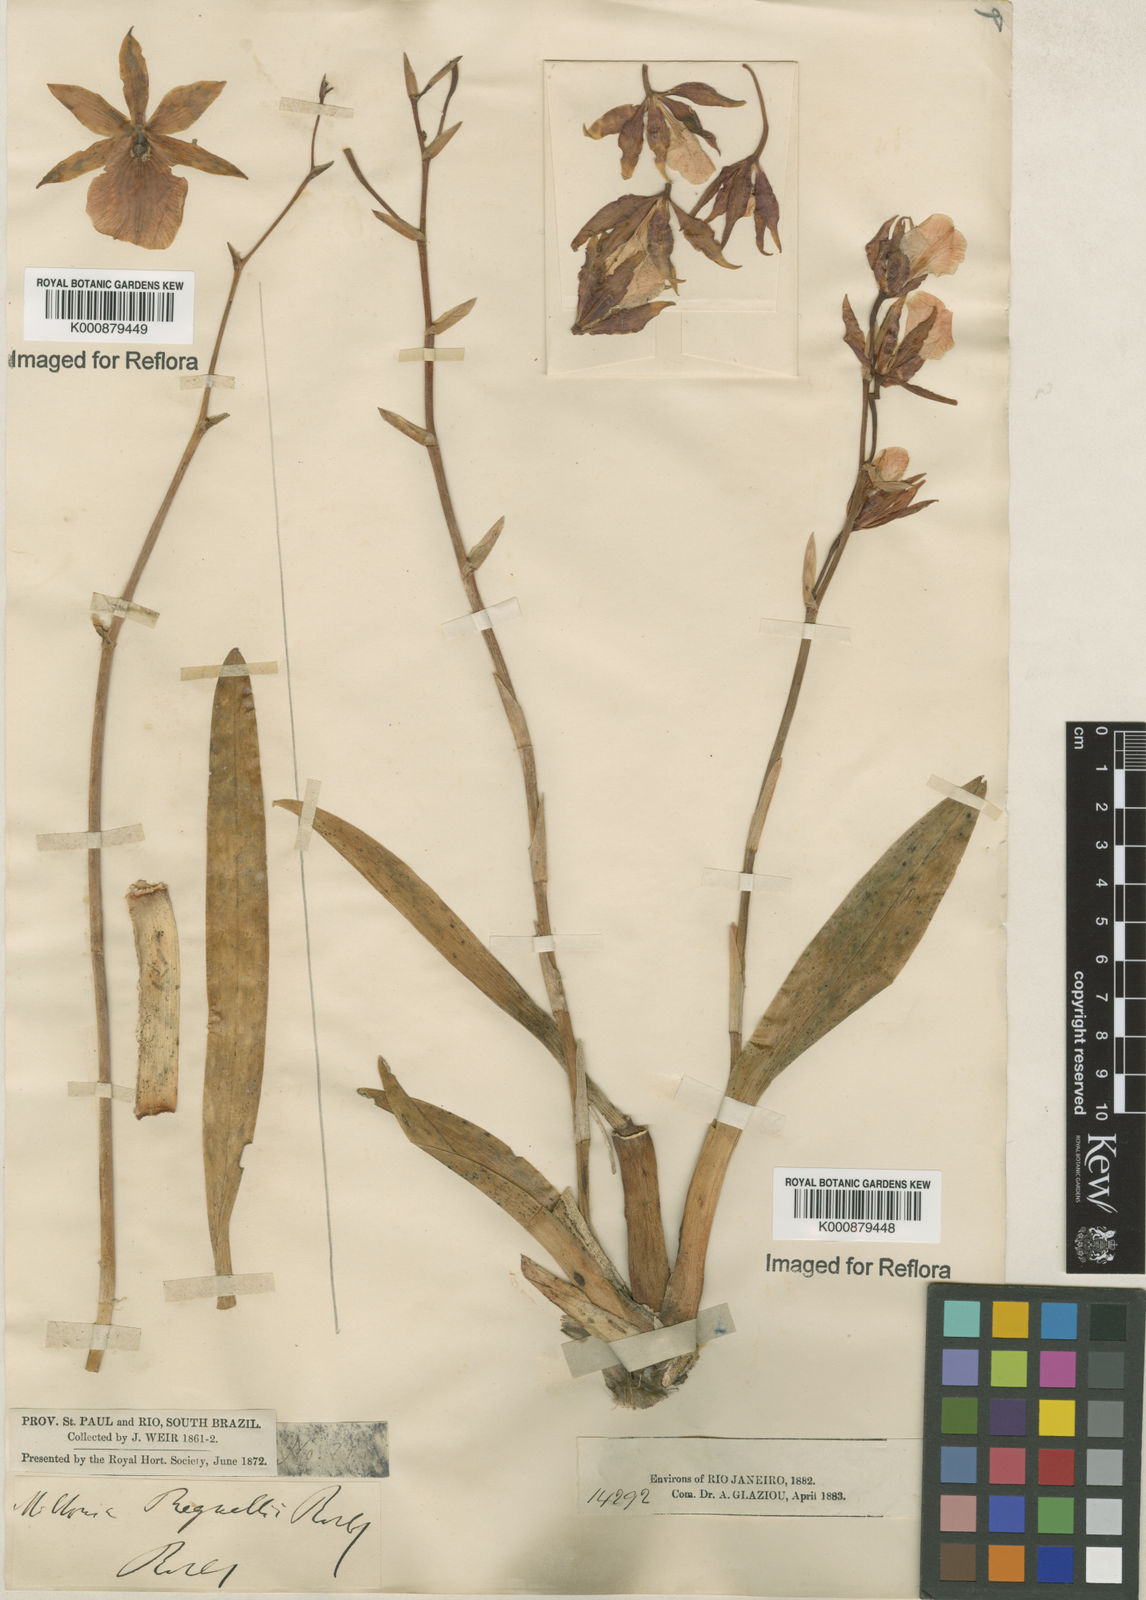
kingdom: Plantae
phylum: Tracheophyta
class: Liliopsida
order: Asparagales
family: Orchidaceae
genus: Miltonia
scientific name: Miltonia regnellii
